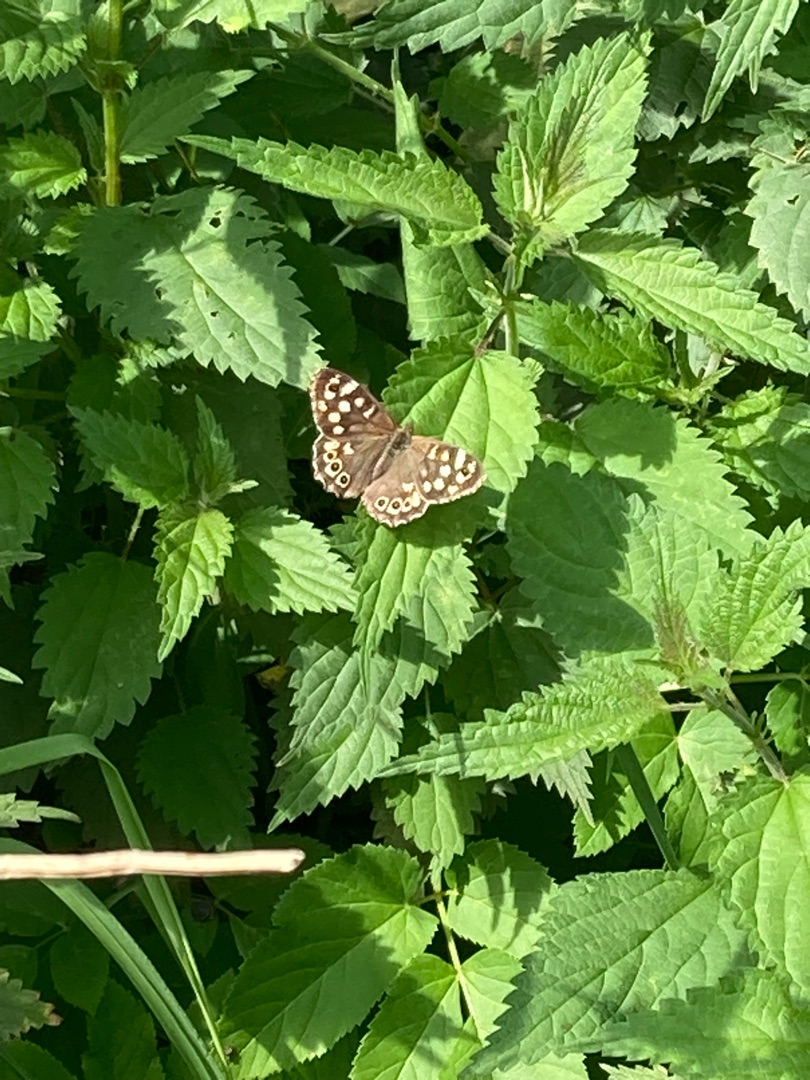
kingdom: Animalia
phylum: Arthropoda
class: Insecta
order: Lepidoptera
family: Nymphalidae
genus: Pararge
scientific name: Pararge aegeria
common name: Skovrandøje
